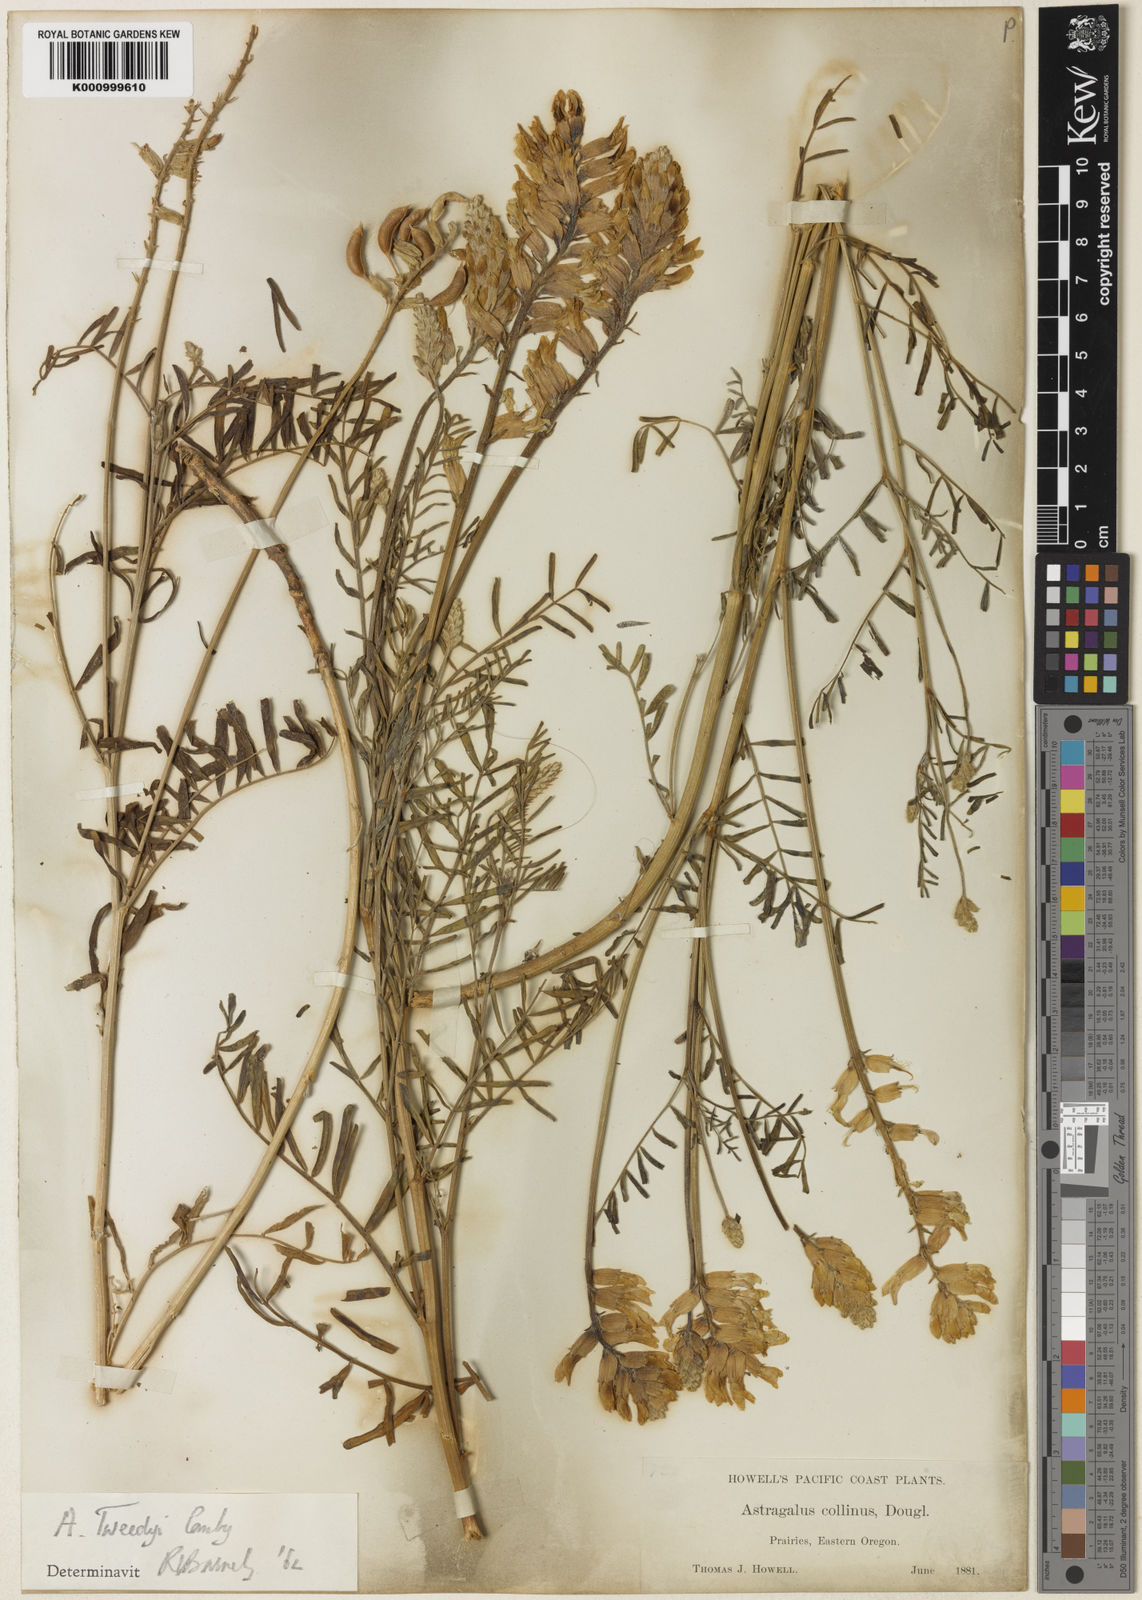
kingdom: Plantae
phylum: Tracheophyta
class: Magnoliopsida
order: Fabales
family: Fabaceae
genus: Astragalus
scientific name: Astragalus tweedyi
